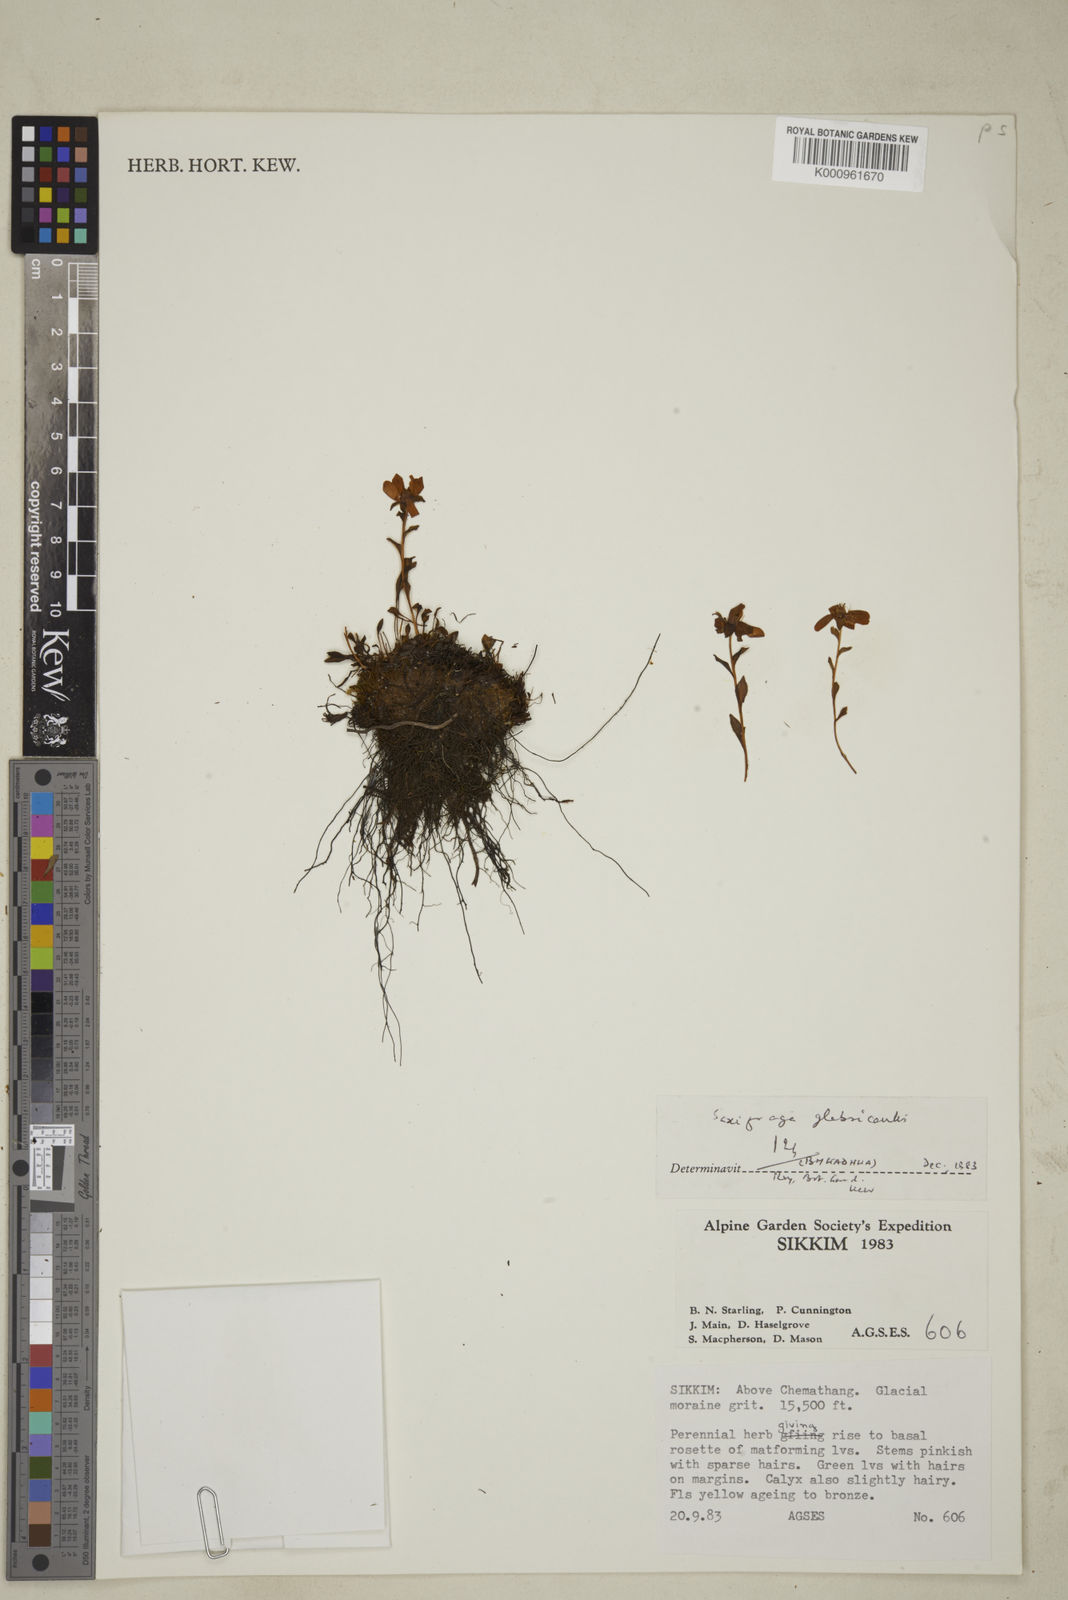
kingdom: Plantae
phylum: Tracheophyta
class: Magnoliopsida
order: Saxifragales
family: Saxifragaceae
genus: Saxifraga
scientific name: Saxifraga glabricaulis
